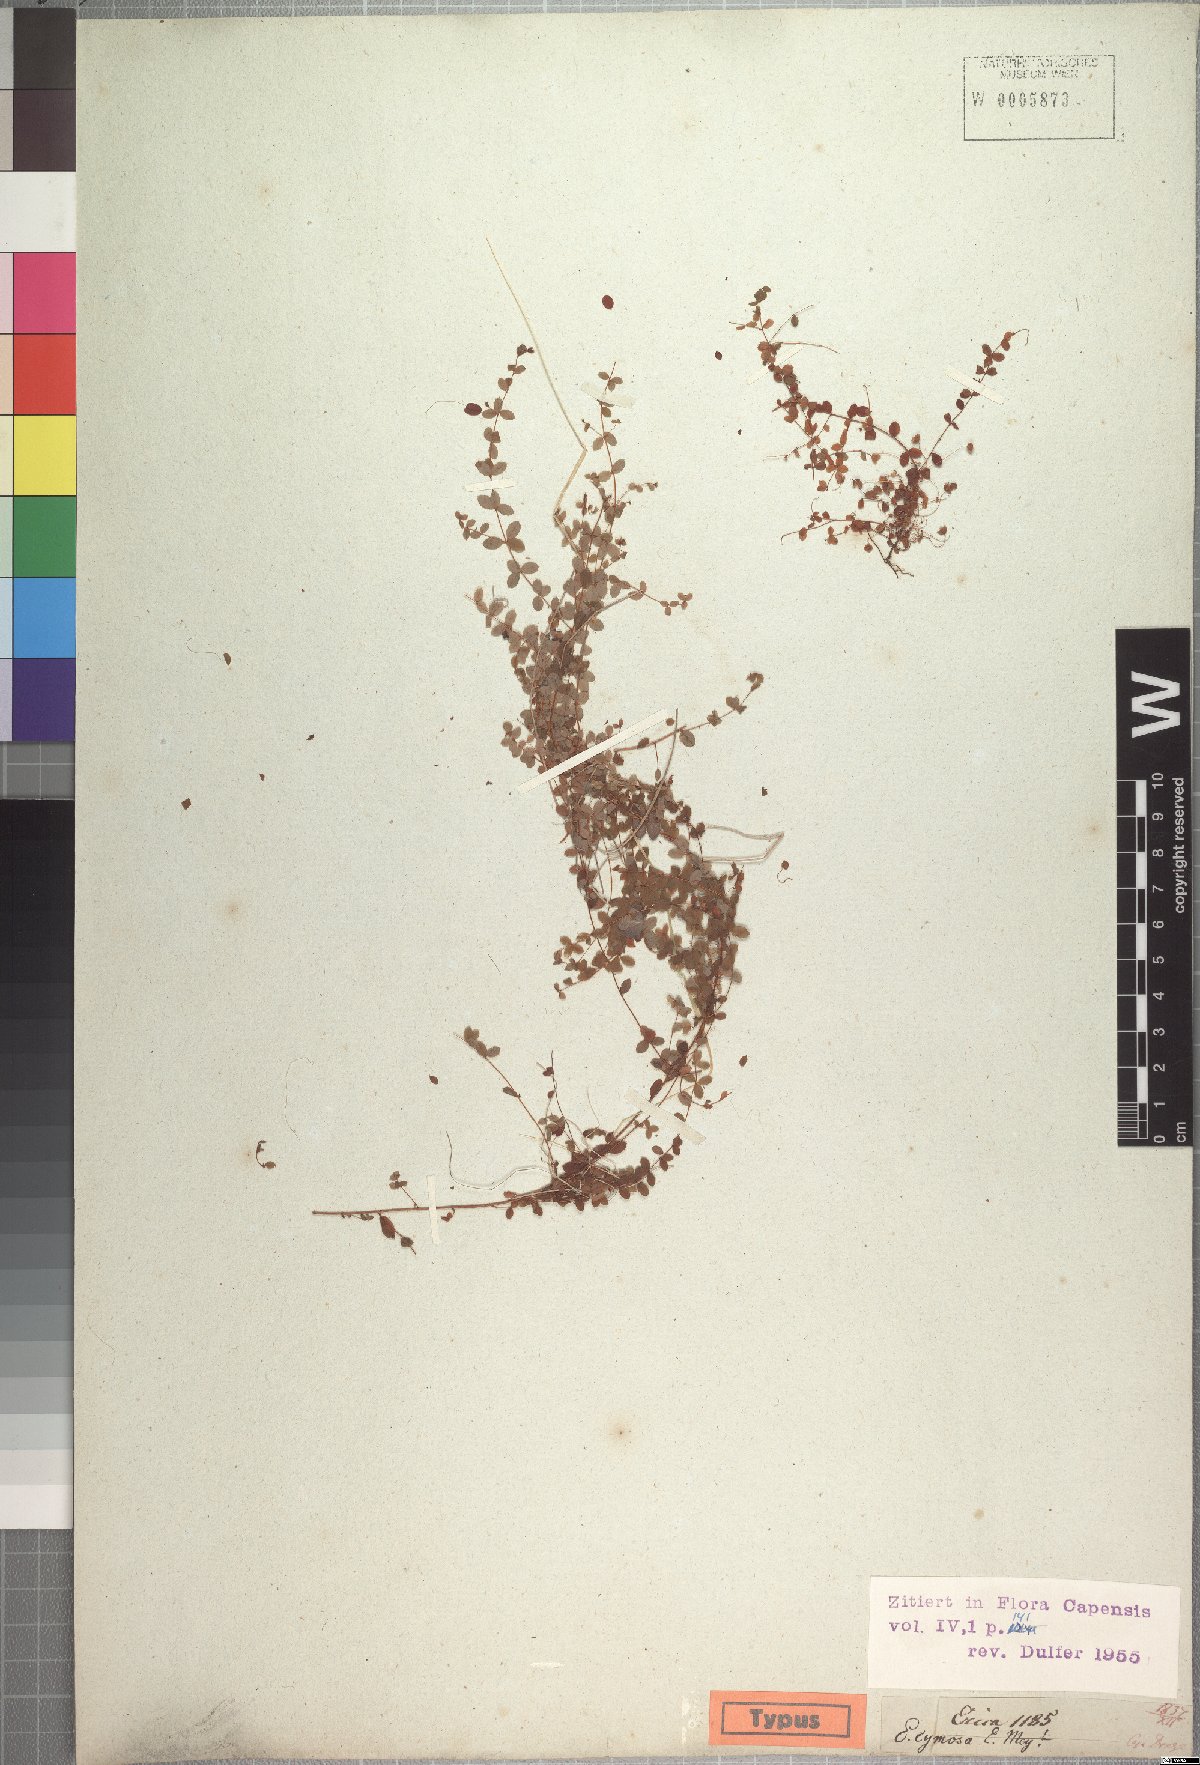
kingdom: Plantae
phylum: Tracheophyta
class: Magnoliopsida
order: Ericales
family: Ericaceae
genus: Erica
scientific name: Erica cymosa
